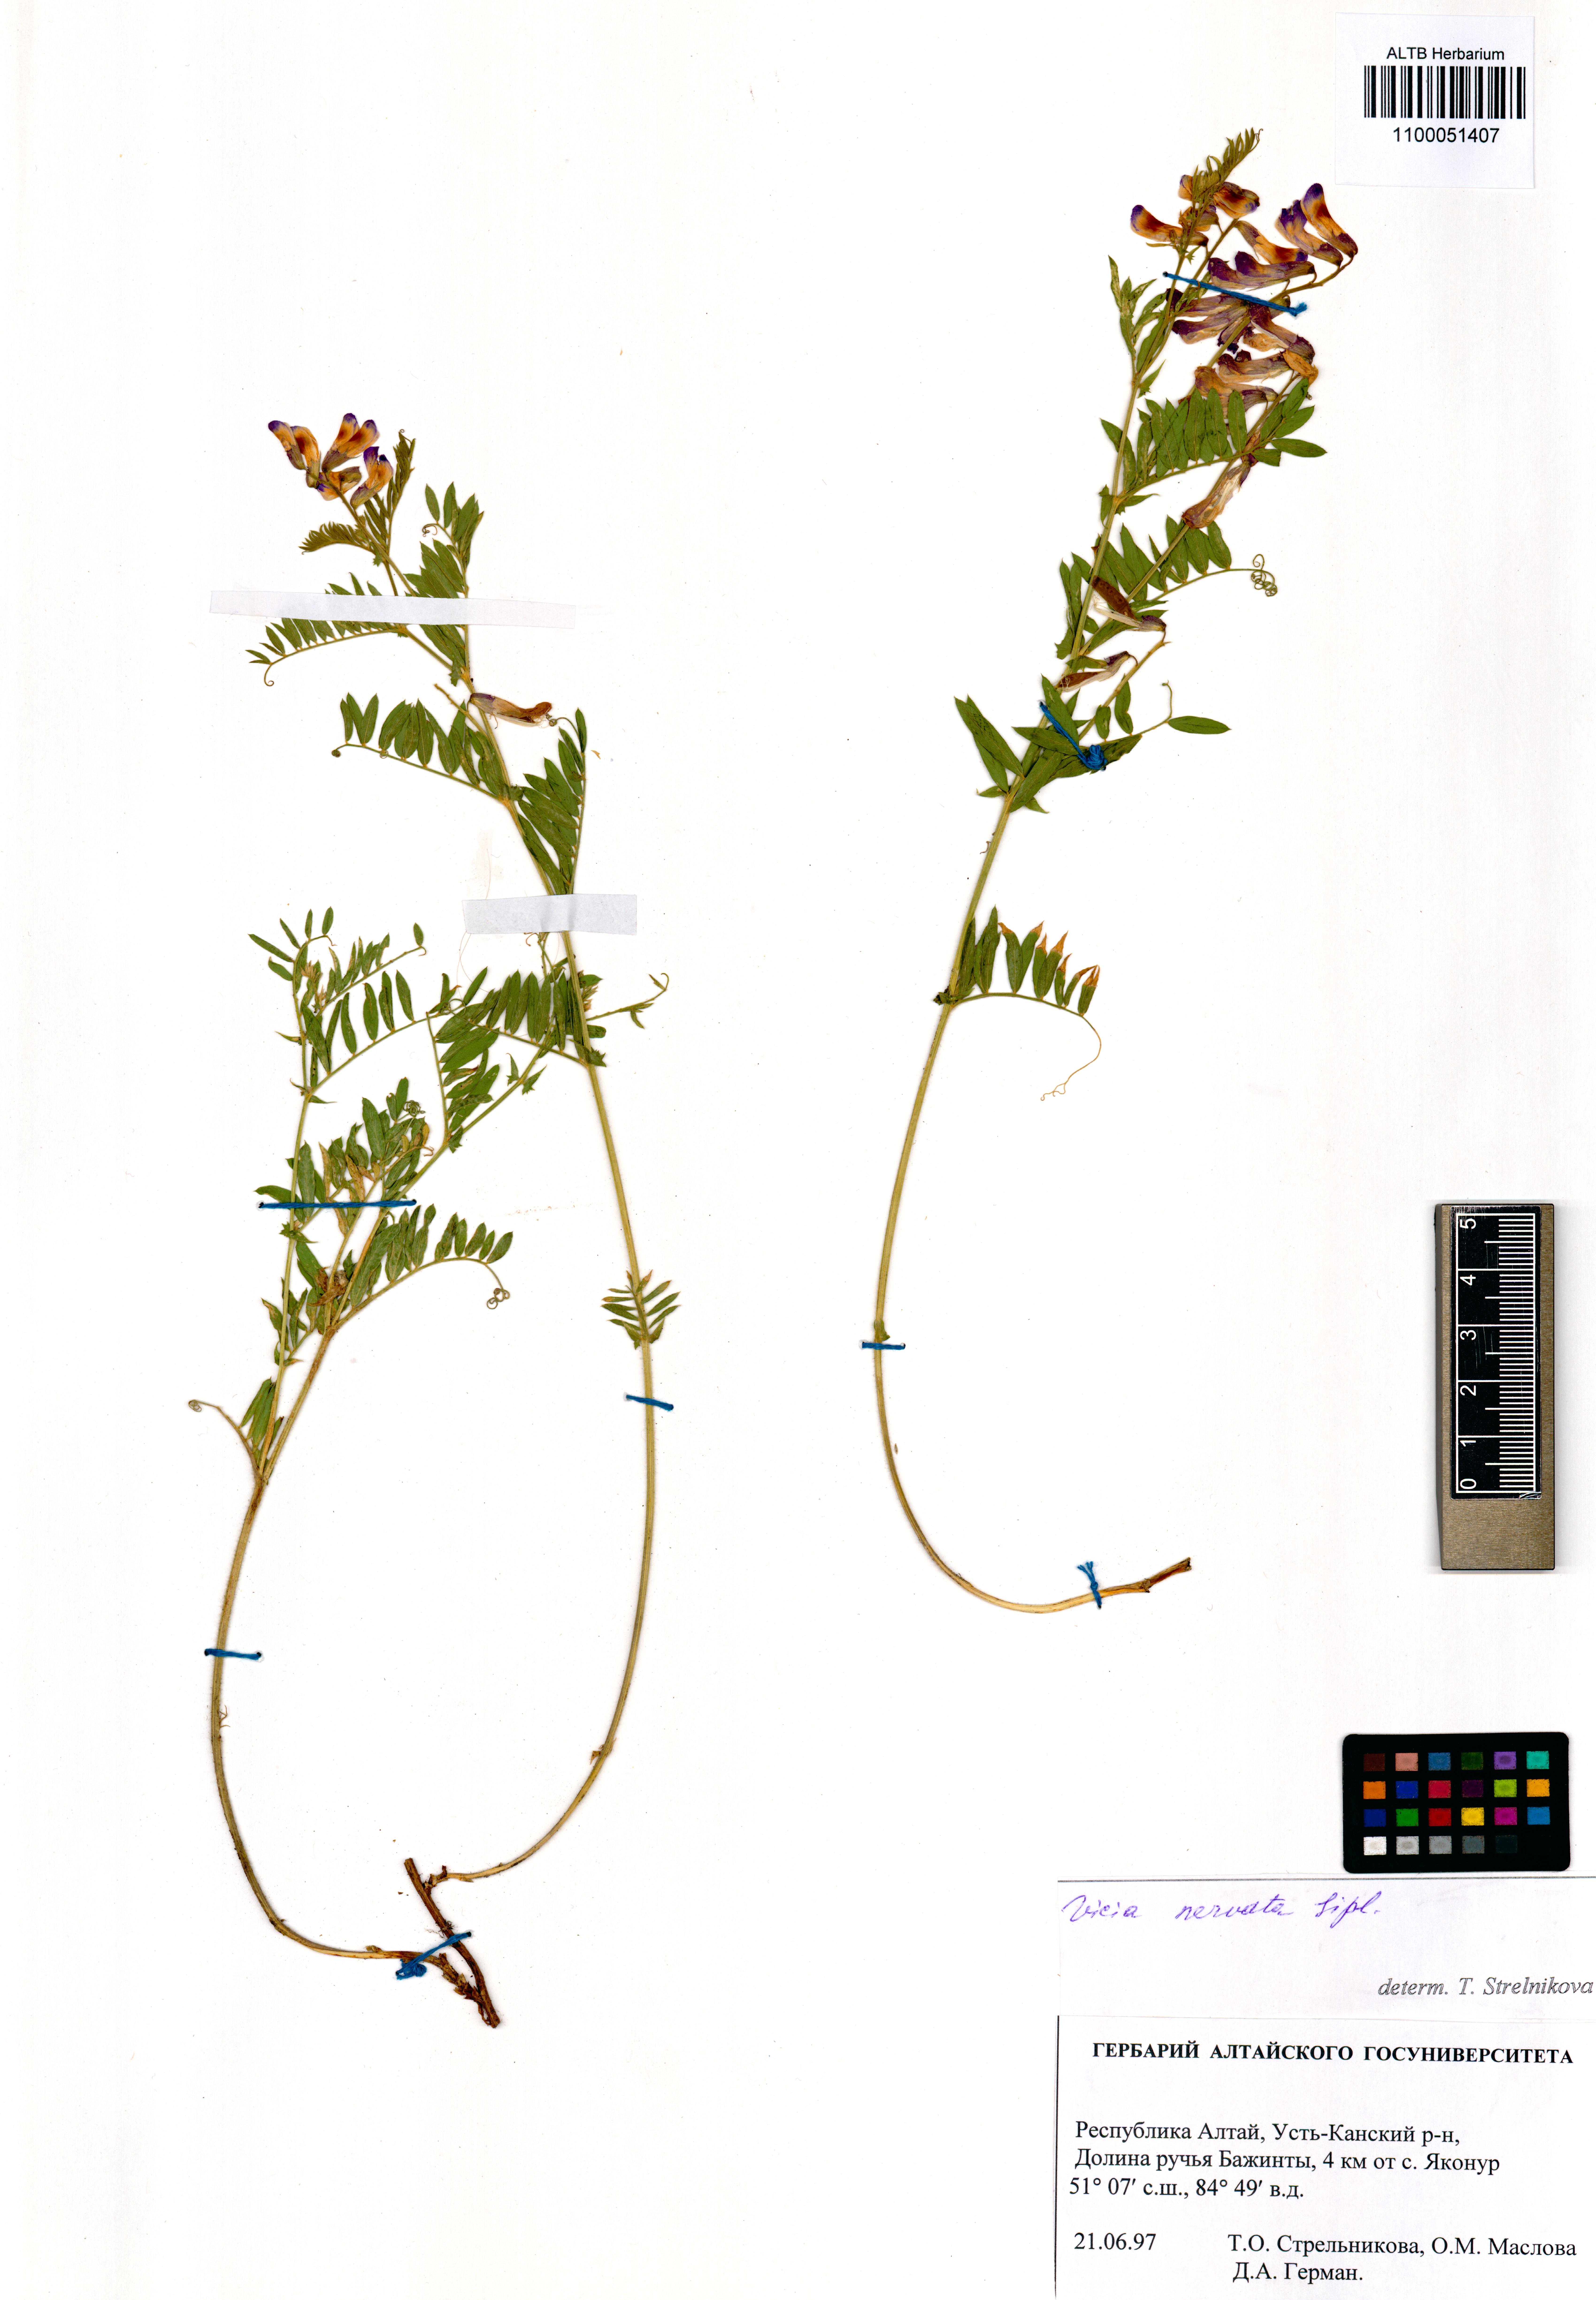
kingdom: Plantae
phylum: Tracheophyta
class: Magnoliopsida
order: Fabales
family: Fabaceae
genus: Vicia
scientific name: Vicia multicaulis
